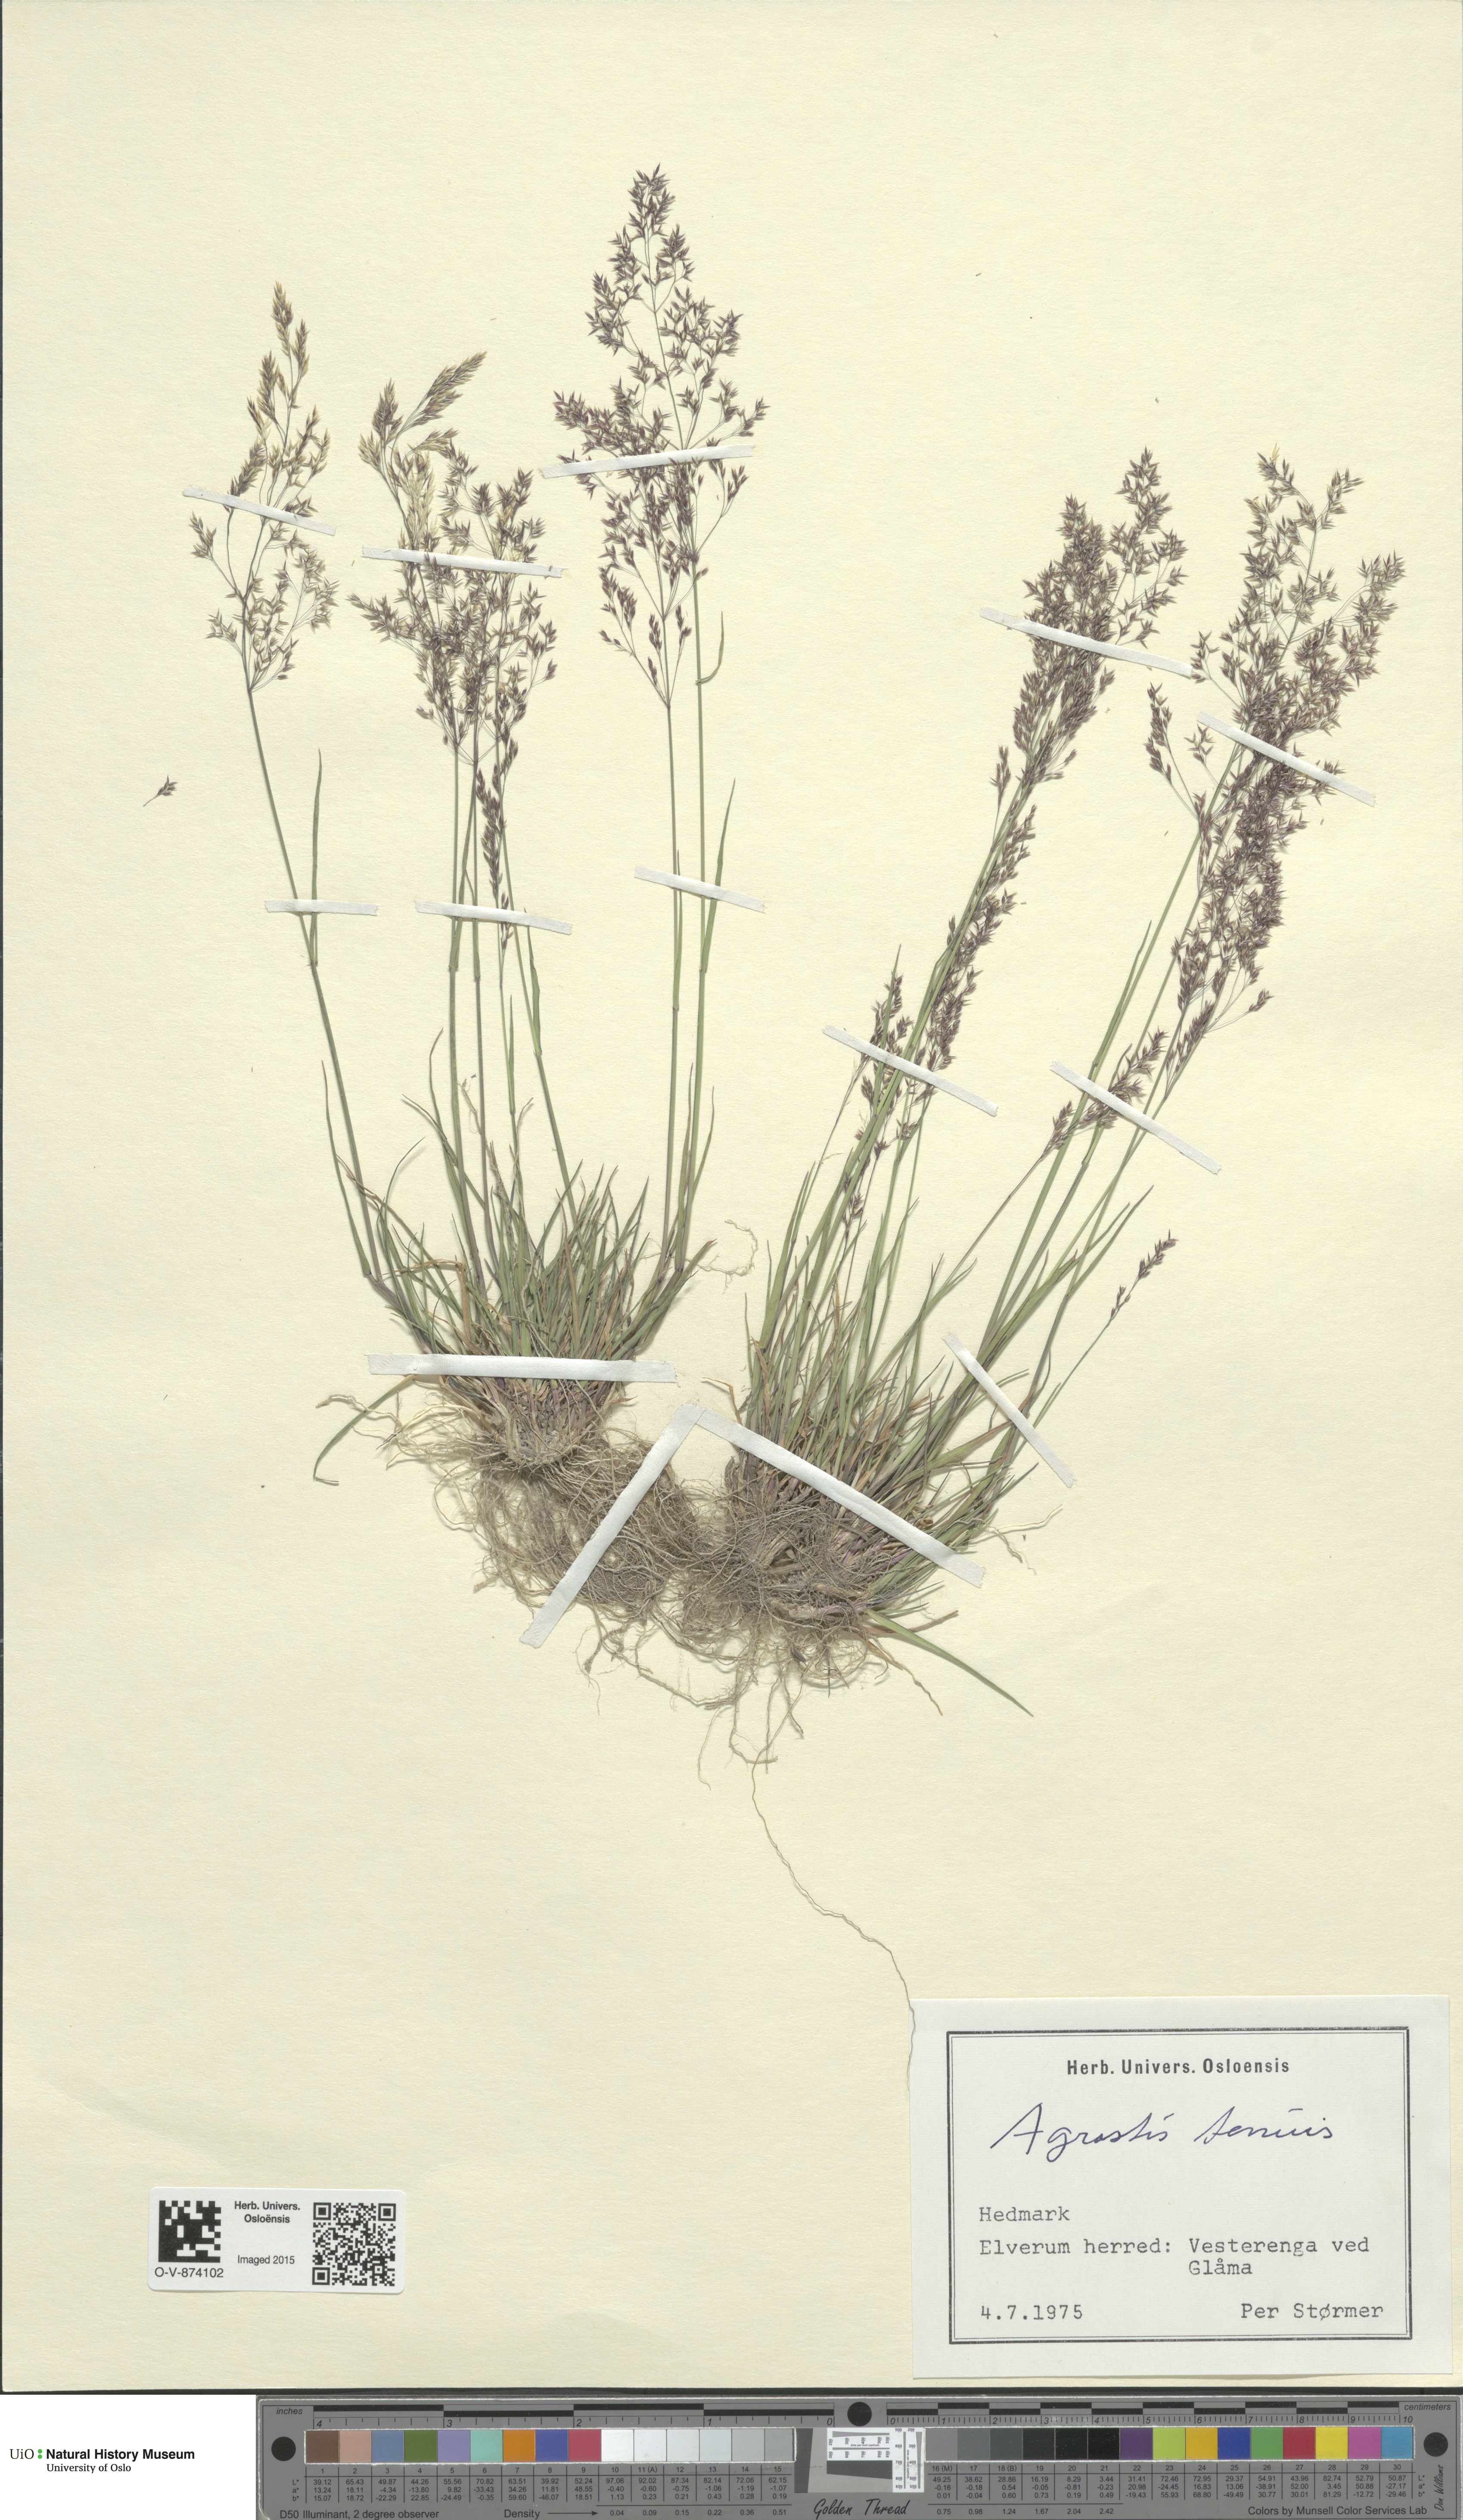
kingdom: Plantae
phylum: Tracheophyta
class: Liliopsida
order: Poales
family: Poaceae
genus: Agrostis
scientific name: Agrostis capillaris
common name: Colonial bentgrass
